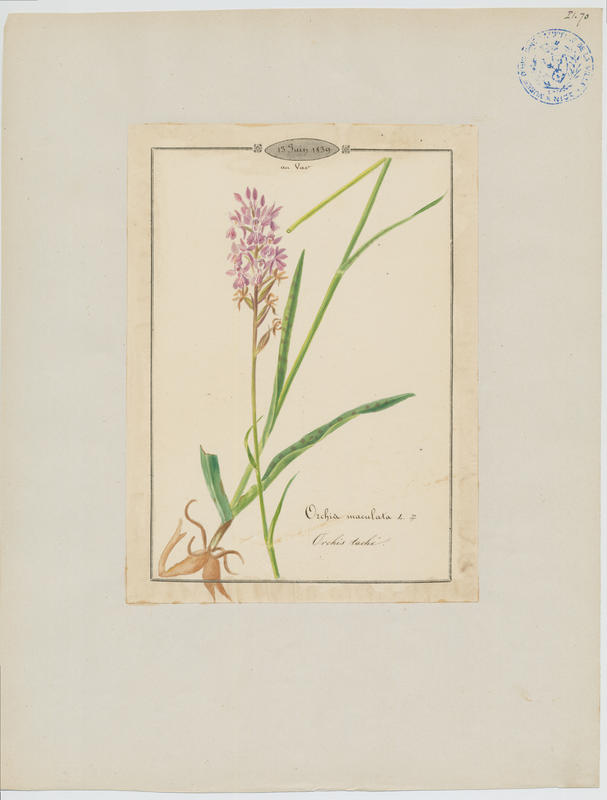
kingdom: Plantae
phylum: Tracheophyta
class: Liliopsida
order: Asparagales
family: Orchidaceae
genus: Dactylorhiza
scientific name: Dactylorhiza maculata
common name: Heath spotted-orchid
